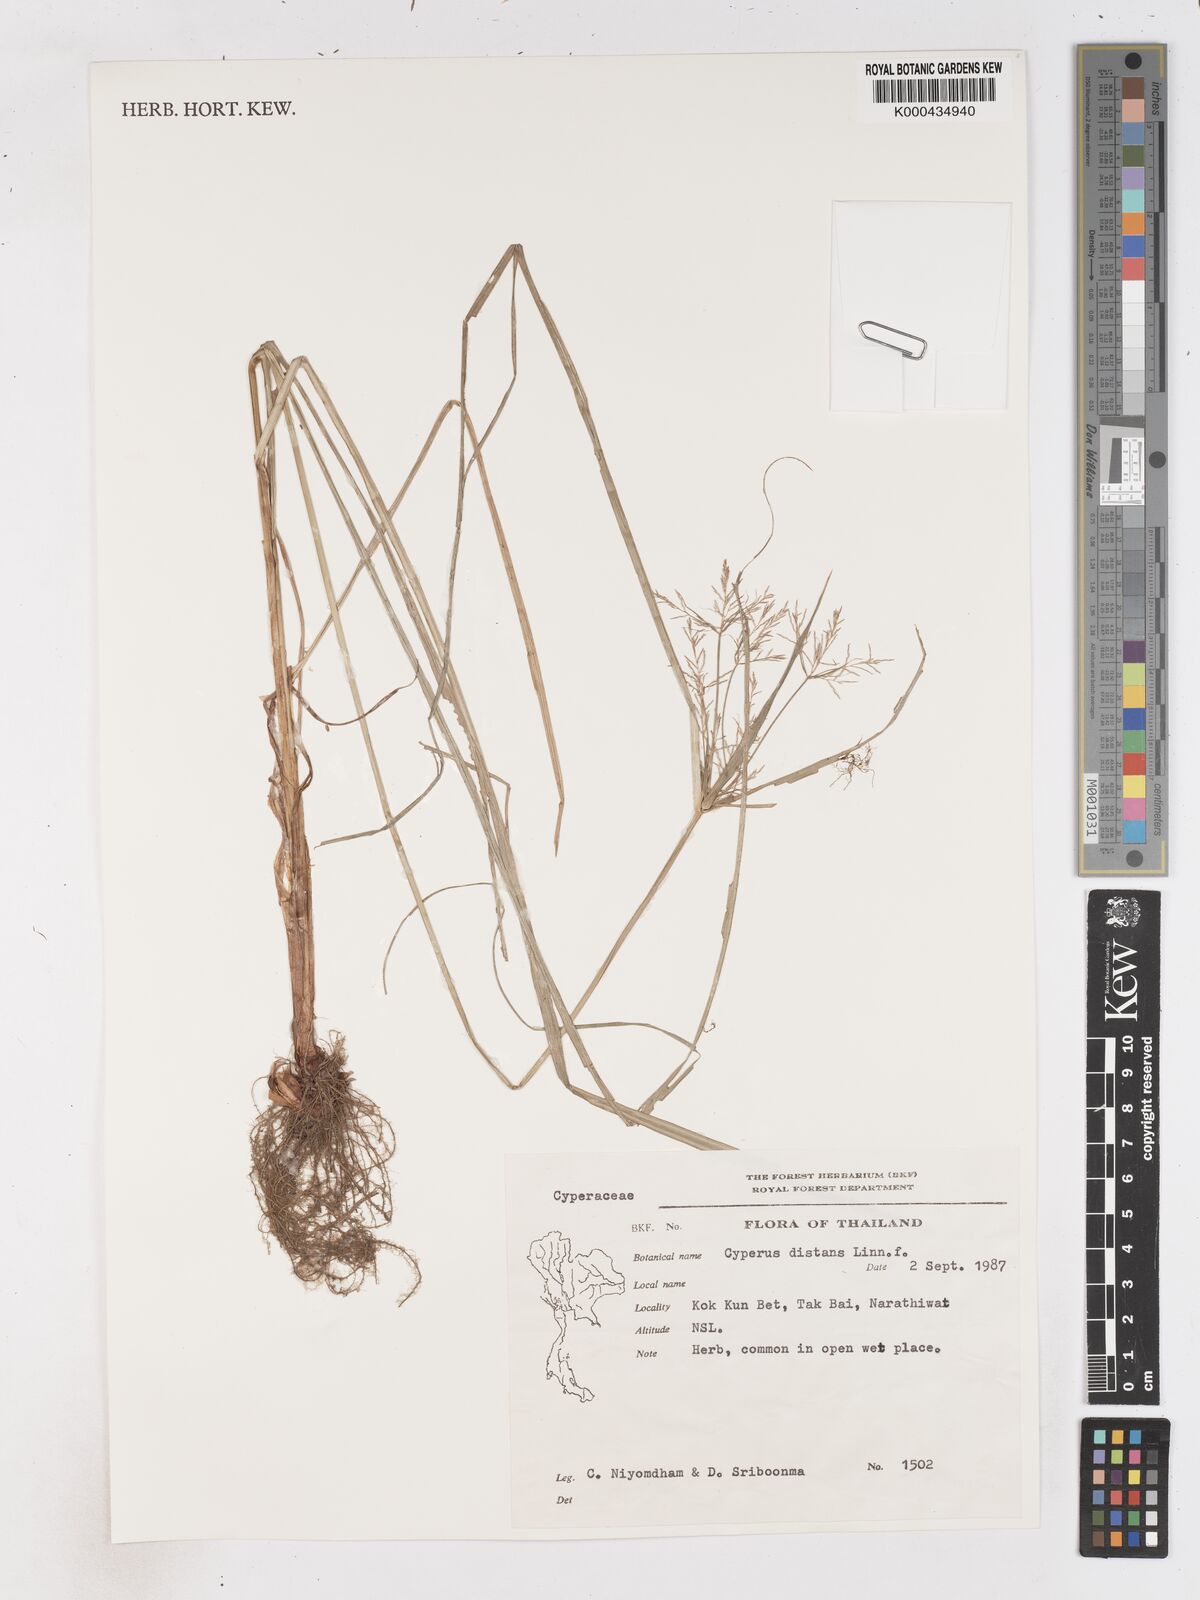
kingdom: Plantae
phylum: Tracheophyta
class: Liliopsida
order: Poales
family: Cyperaceae
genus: Cyperus
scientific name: Cyperus distans
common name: Slender cyperus
